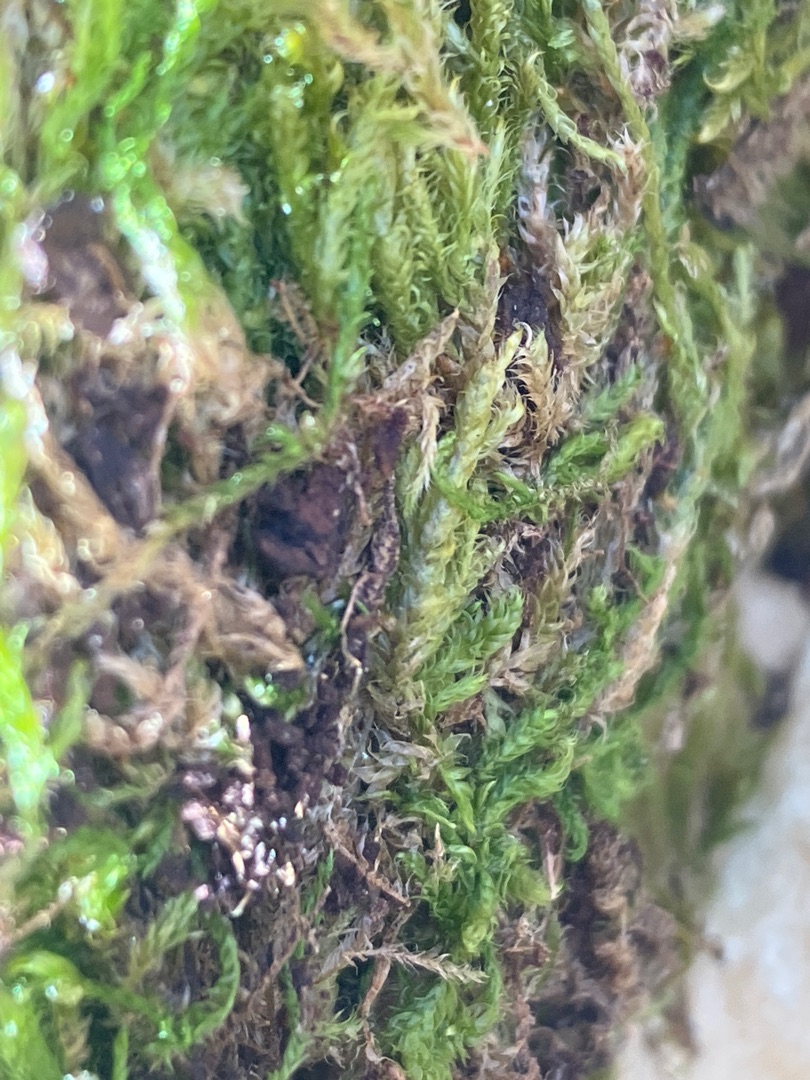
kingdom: Plantae
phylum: Bryophyta
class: Bryopsida
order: Hypnales
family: Hypnaceae
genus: Hypnum
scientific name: Hypnum cupressiforme
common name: Almindelig cypresmos
